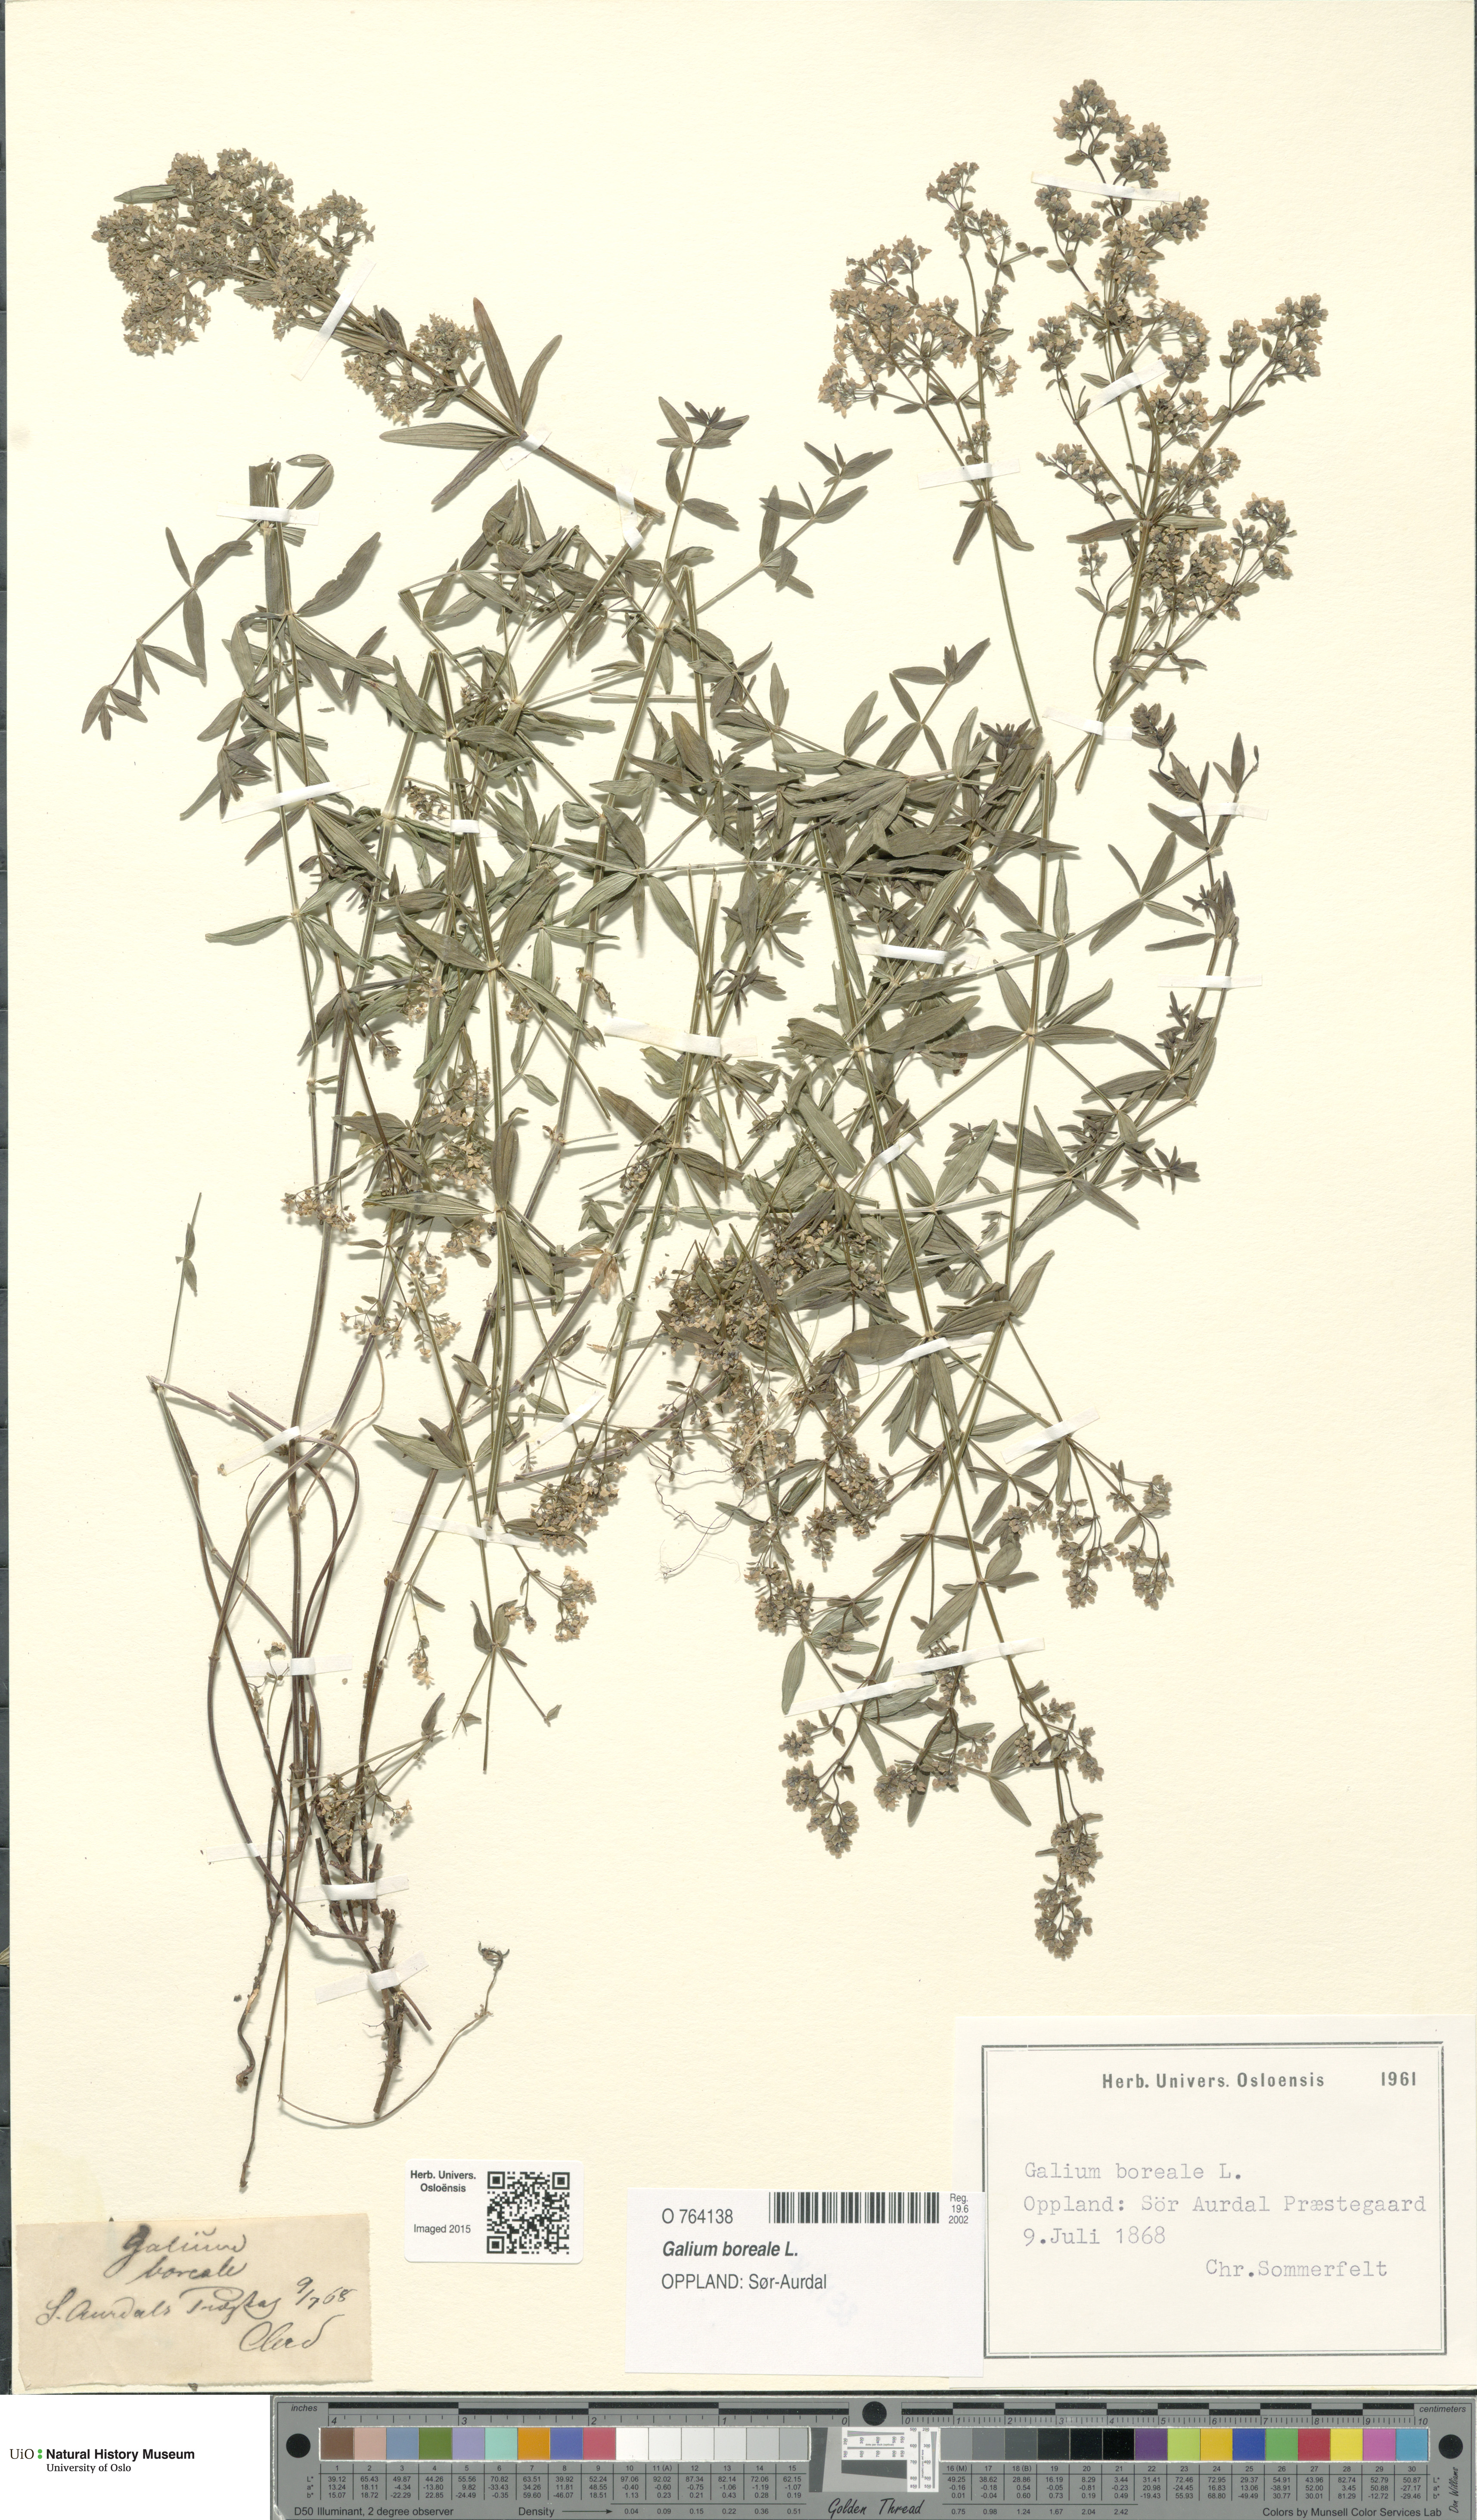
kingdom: Plantae
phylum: Tracheophyta
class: Magnoliopsida
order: Gentianales
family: Rubiaceae
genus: Galium
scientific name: Galium boreale
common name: Northern bedstraw
